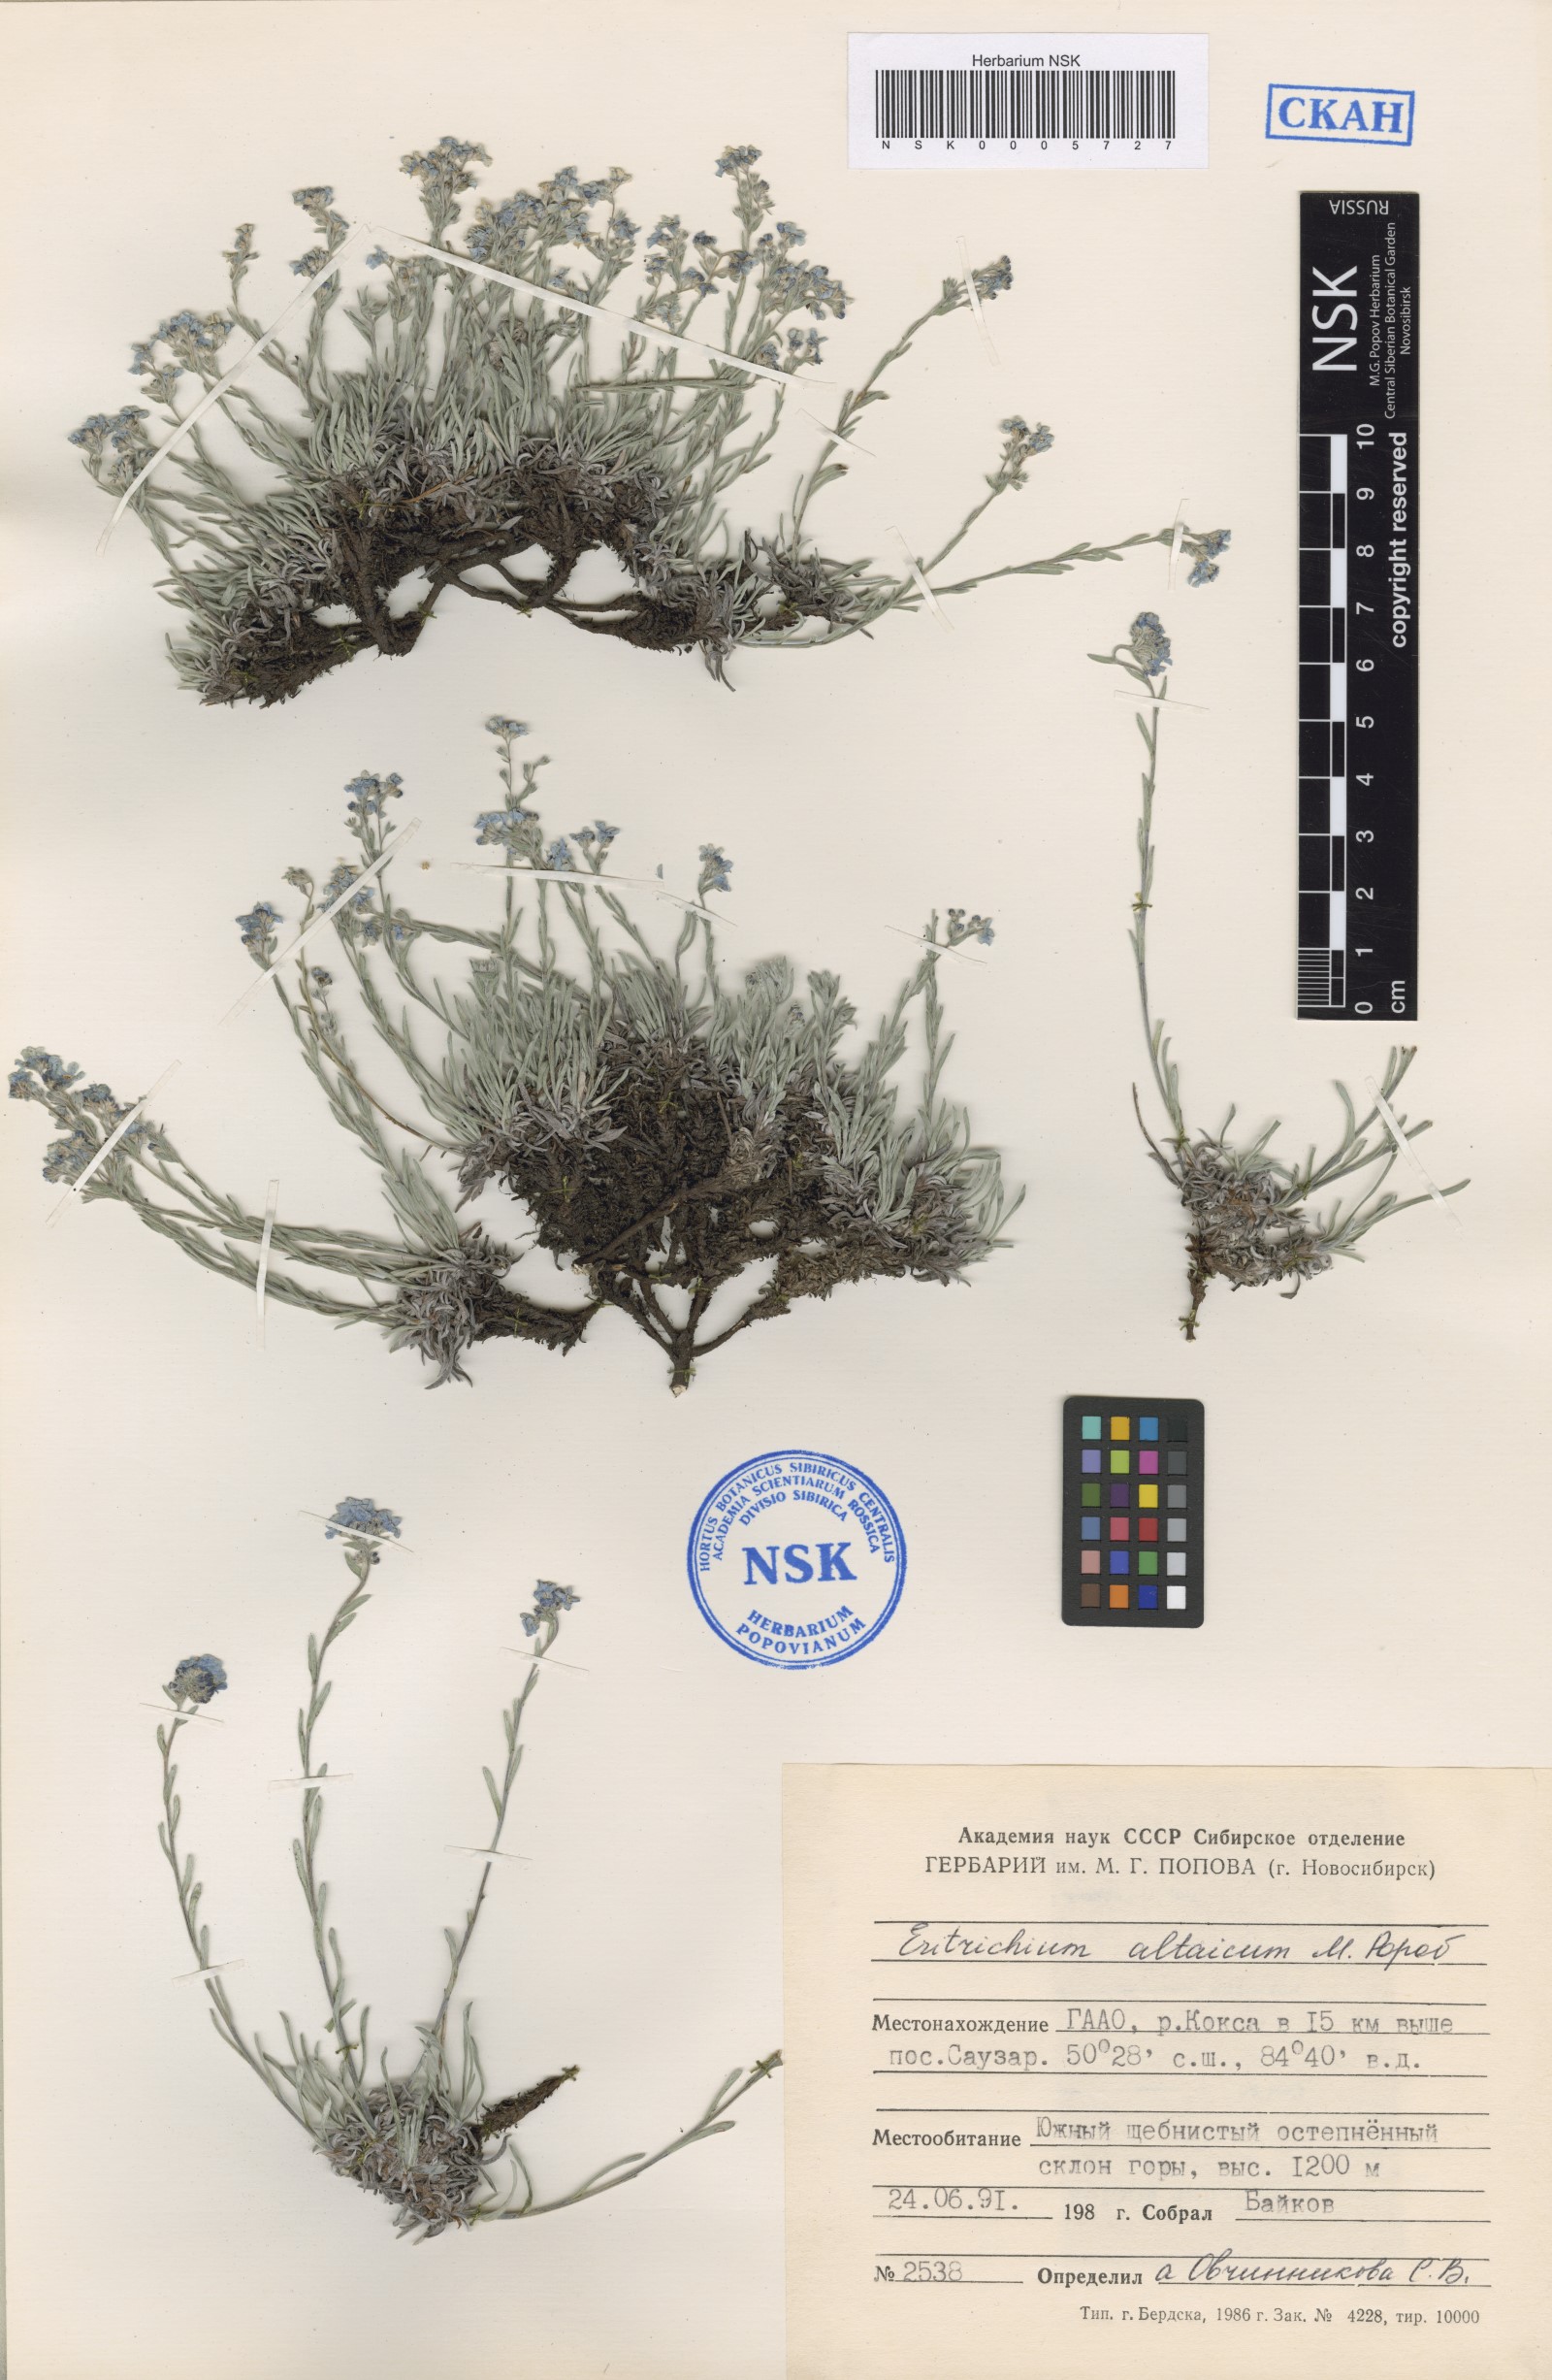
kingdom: Plantae
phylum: Tracheophyta
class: Magnoliopsida
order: Boraginales
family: Boraginaceae
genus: Eritrichium
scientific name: Eritrichium pauciflorum
